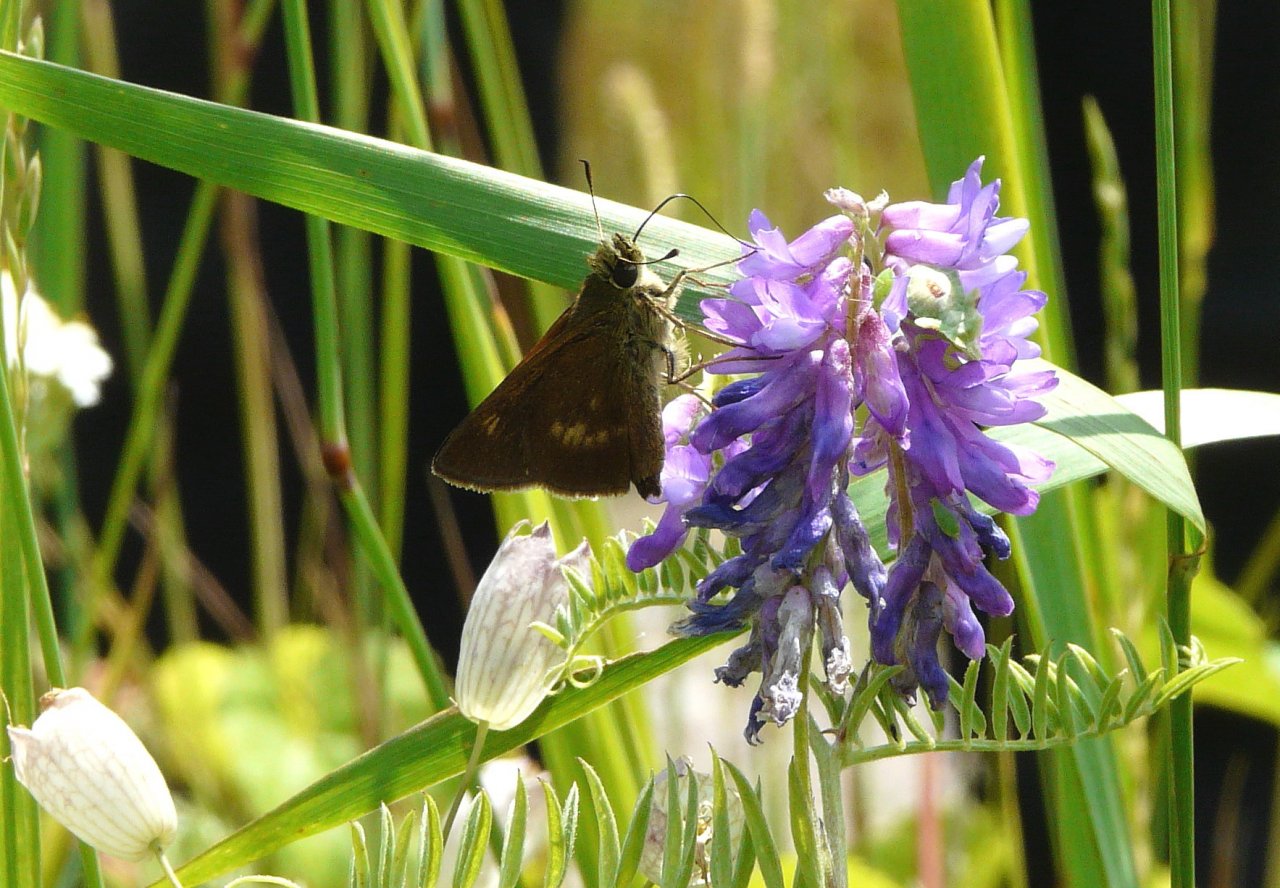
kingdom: Animalia
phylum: Arthropoda
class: Insecta
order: Lepidoptera
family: Hesperiidae
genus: Polites
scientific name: Polites egeremet
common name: Northern Broken-Dash
